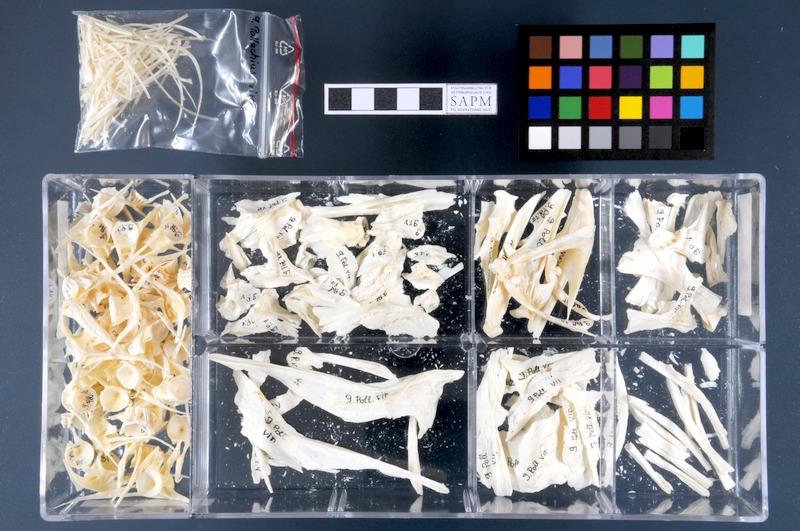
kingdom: Animalia
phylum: Chordata
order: Gadiformes
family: Gadidae
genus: Pollachius
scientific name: Pollachius virens
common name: Saithe
